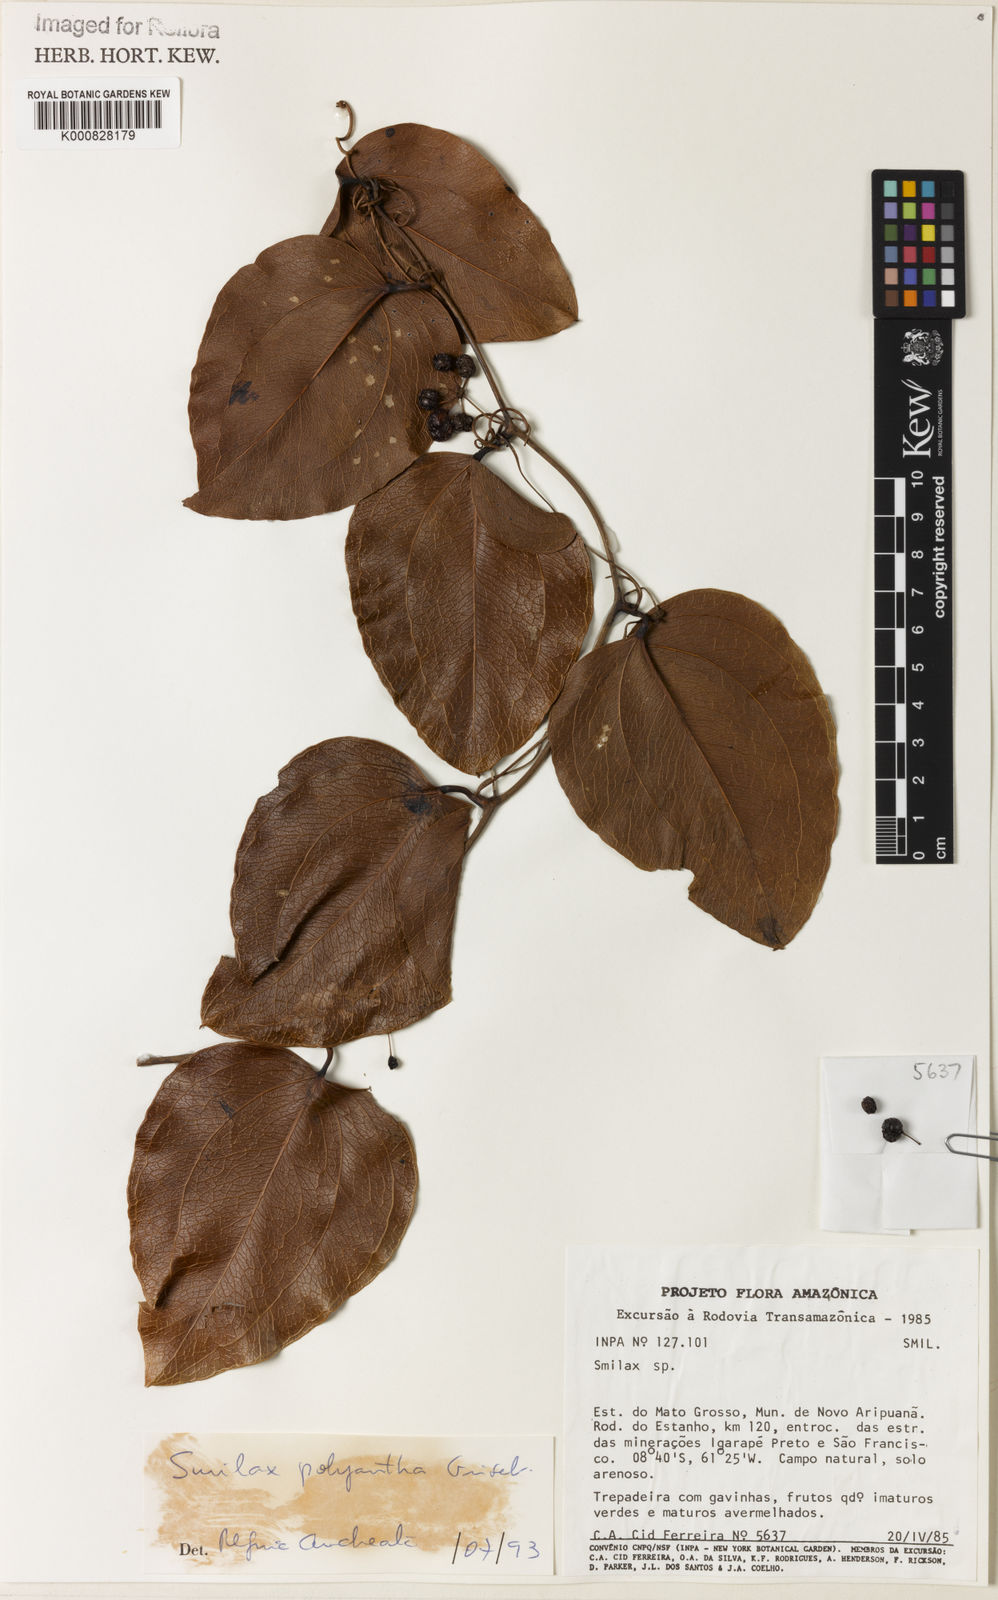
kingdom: Plantae
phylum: Tracheophyta
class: Liliopsida
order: Liliales
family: Smilacaceae
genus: Smilax
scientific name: Smilax polyantha
